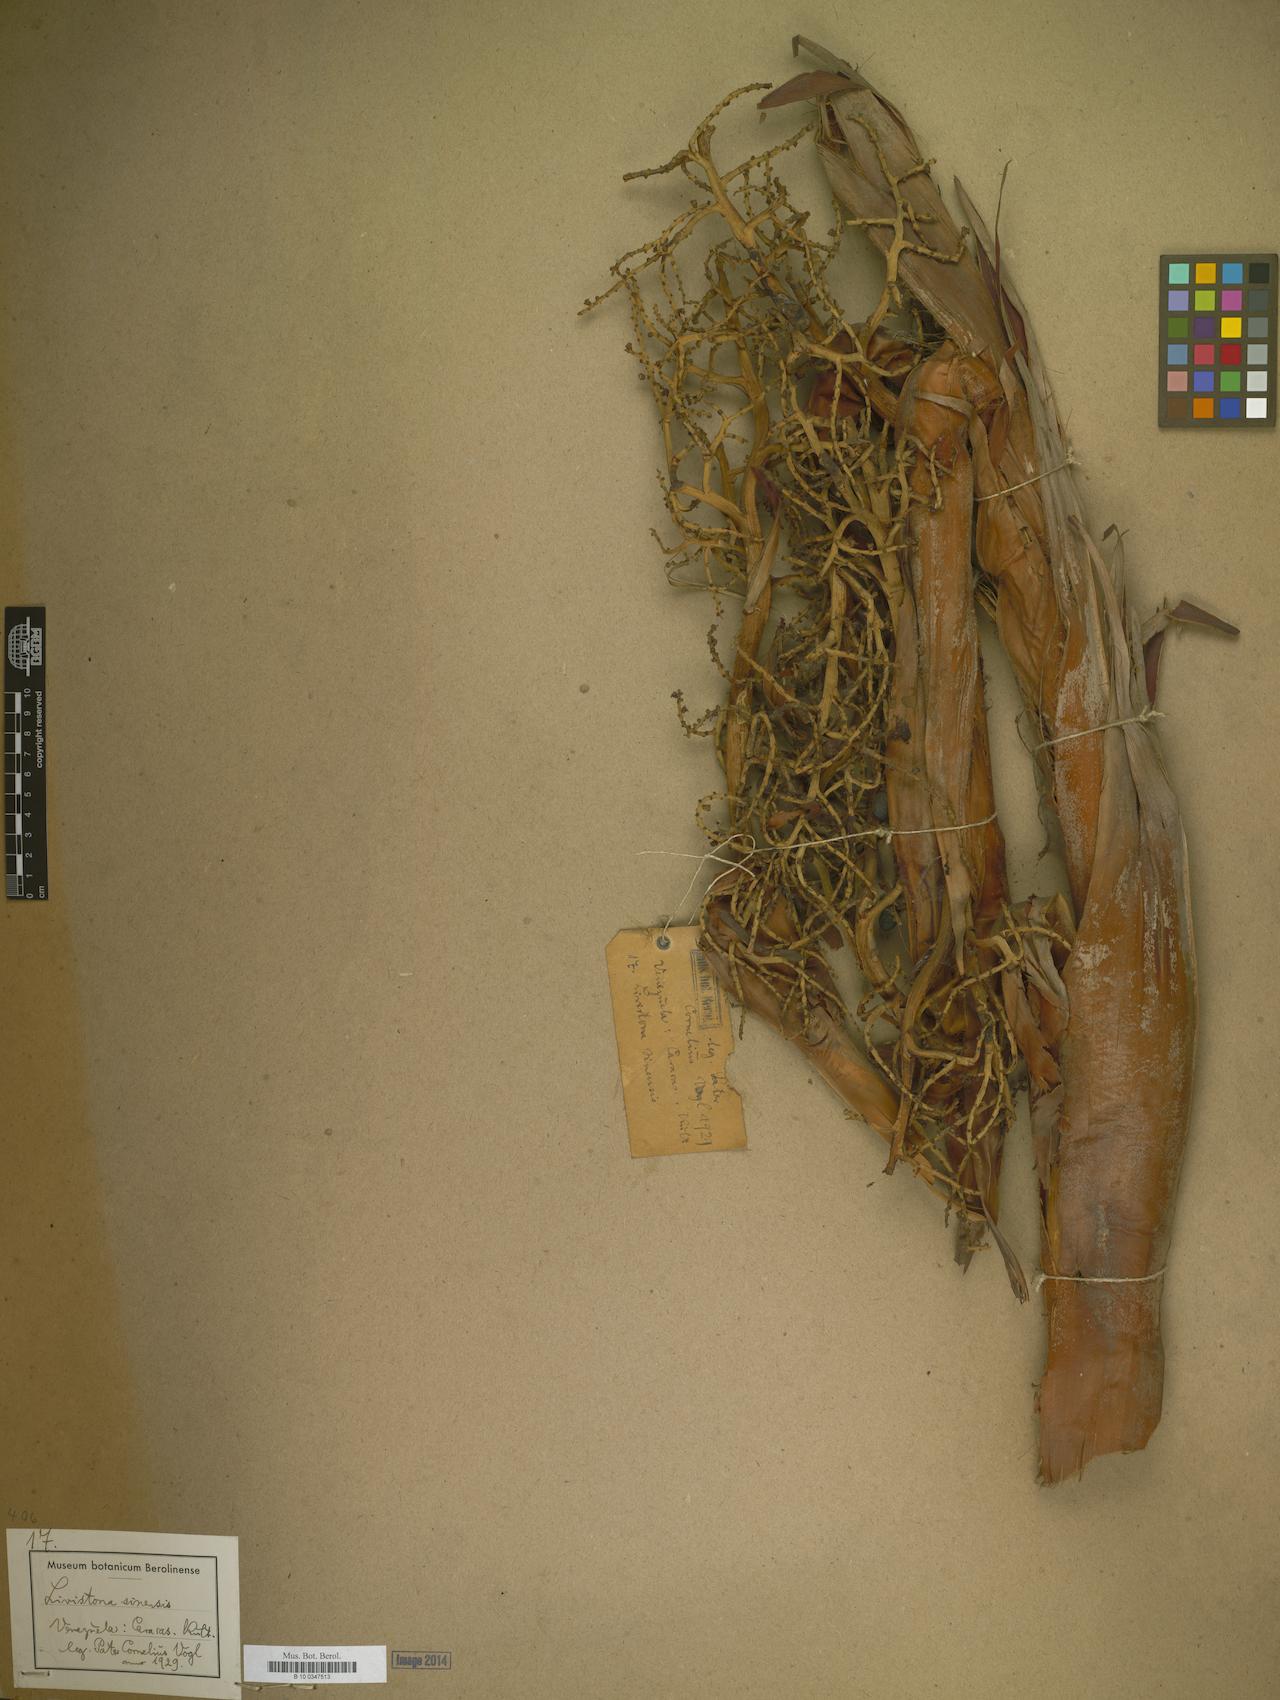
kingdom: Plantae
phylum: Tracheophyta
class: Liliopsida
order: Arecales
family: Arecaceae
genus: Livistona
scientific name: Livistona chinensis
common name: Fountain palm
